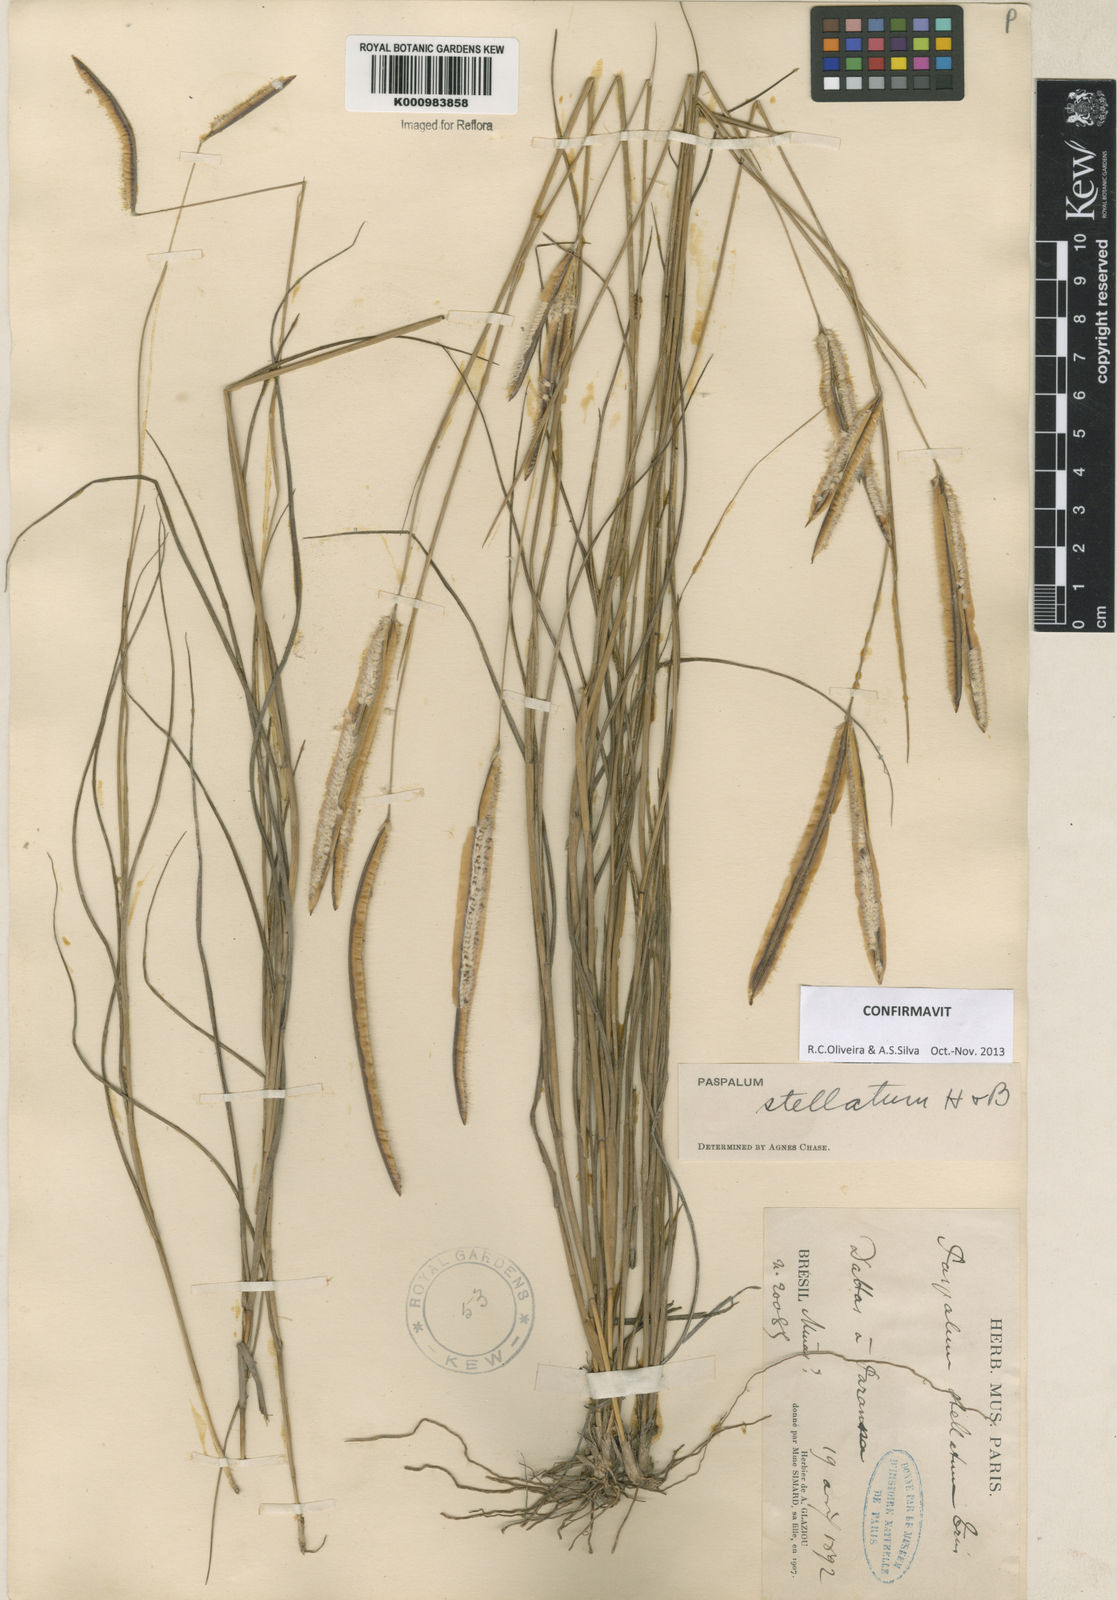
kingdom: Plantae
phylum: Tracheophyta
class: Liliopsida
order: Poales
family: Poaceae
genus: Paspalum
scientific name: Paspalum
